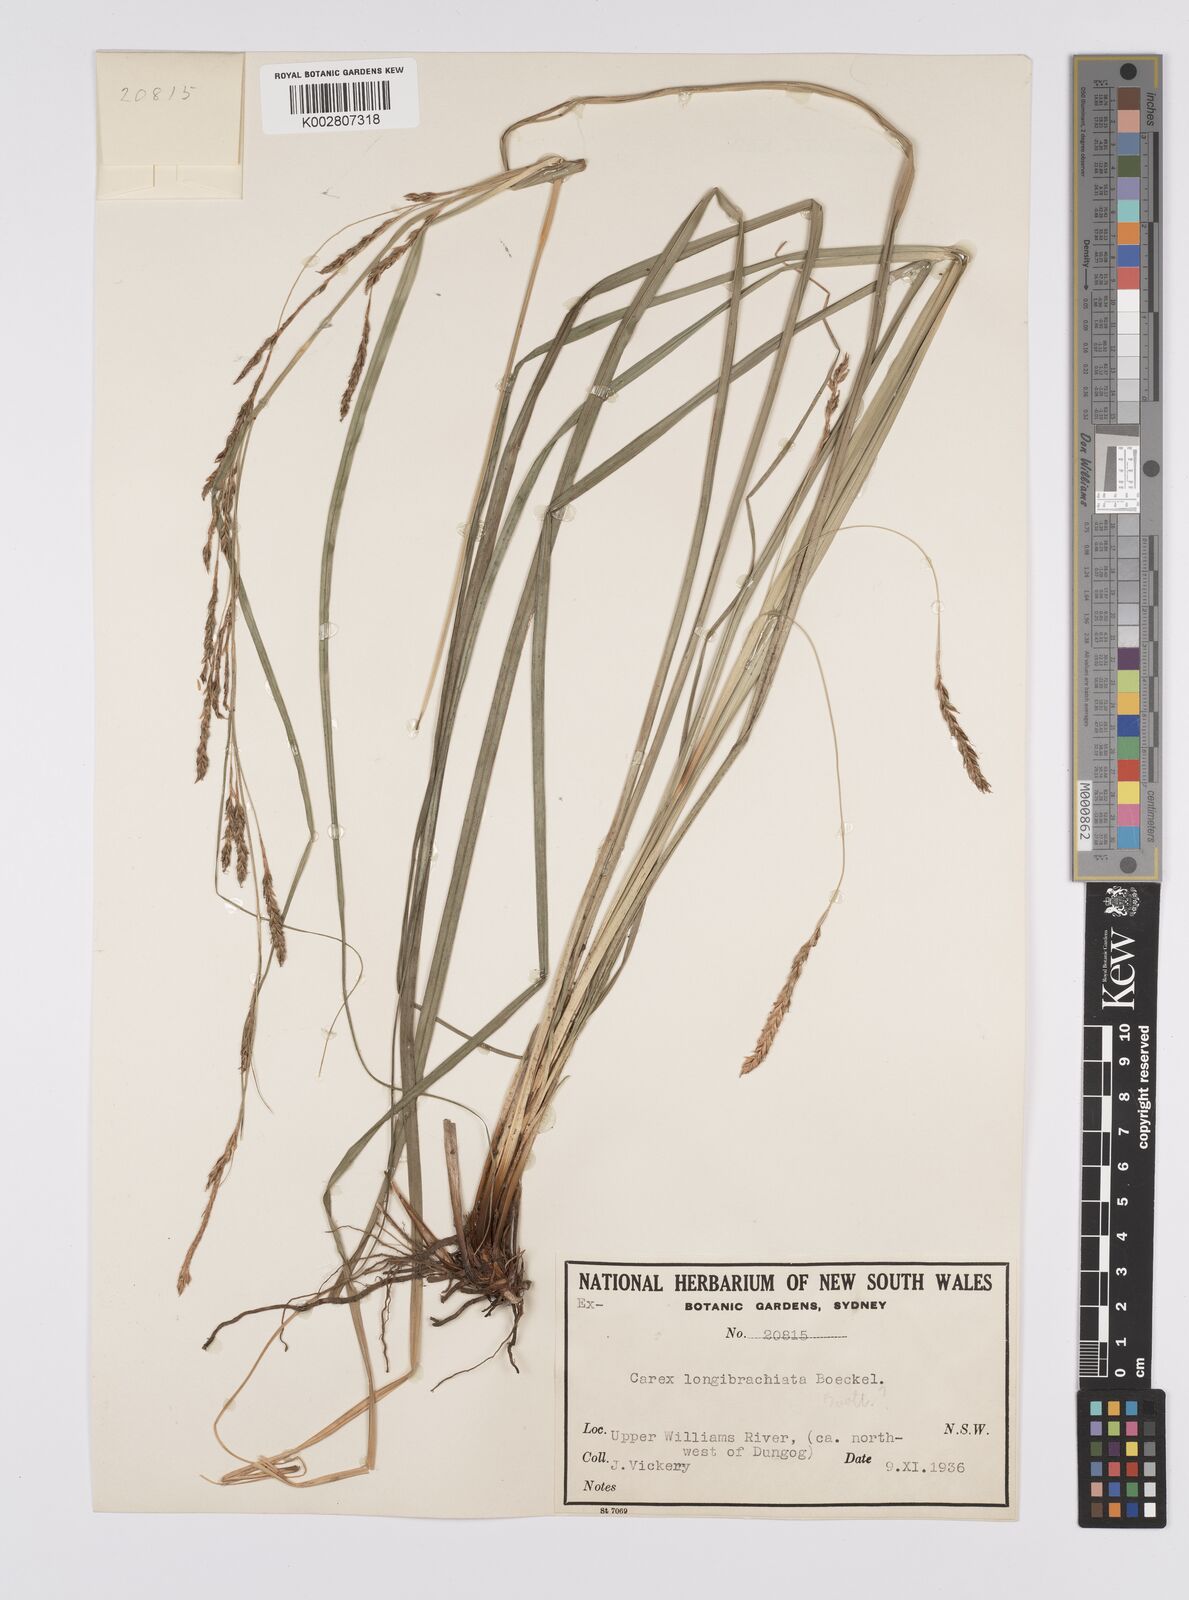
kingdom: Plantae
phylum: Tracheophyta
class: Liliopsida
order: Poales
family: Cyperaceae
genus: Carex
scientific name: Carex pseudocyperus
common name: Cyperus sedge
